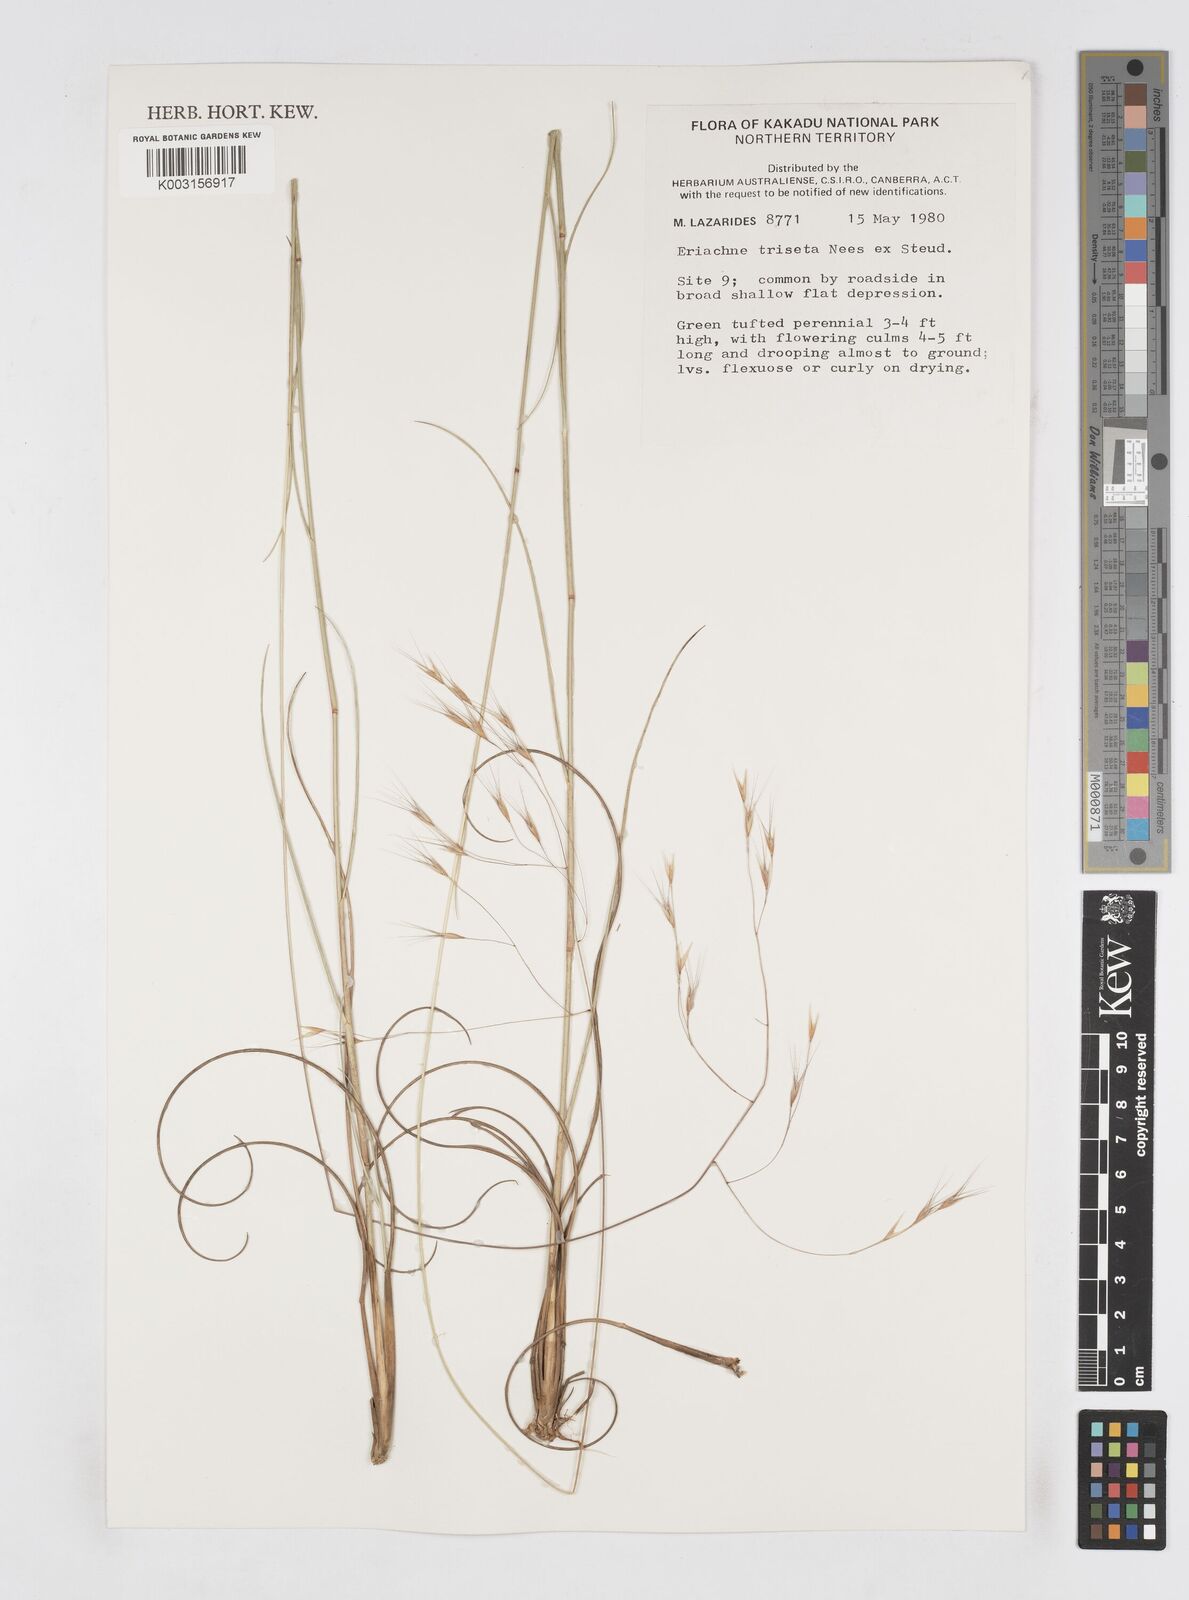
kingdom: Plantae
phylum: Tracheophyta
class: Liliopsida
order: Poales
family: Poaceae
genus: Eriachne
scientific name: Eriachne triseta
